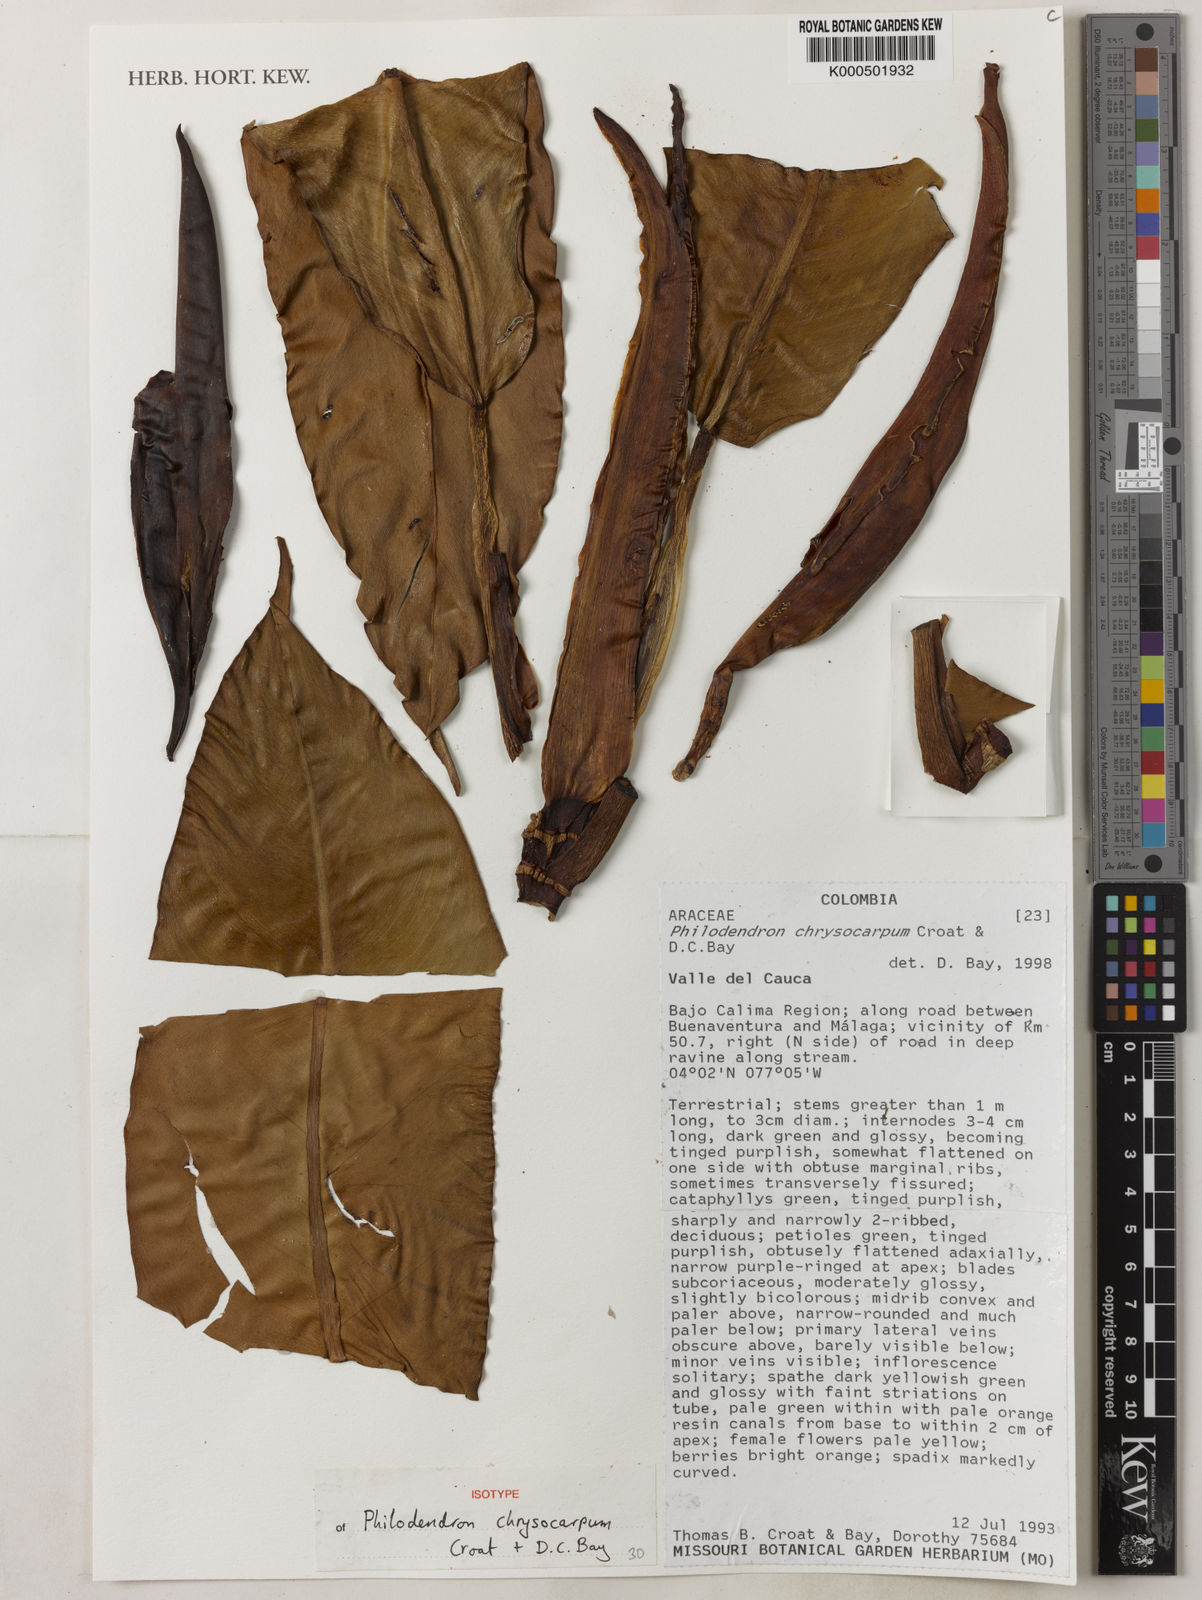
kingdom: Plantae
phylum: Tracheophyta
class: Liliopsida
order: Alismatales
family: Araceae
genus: Philodendron
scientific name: Philodendron chrysocarpum
